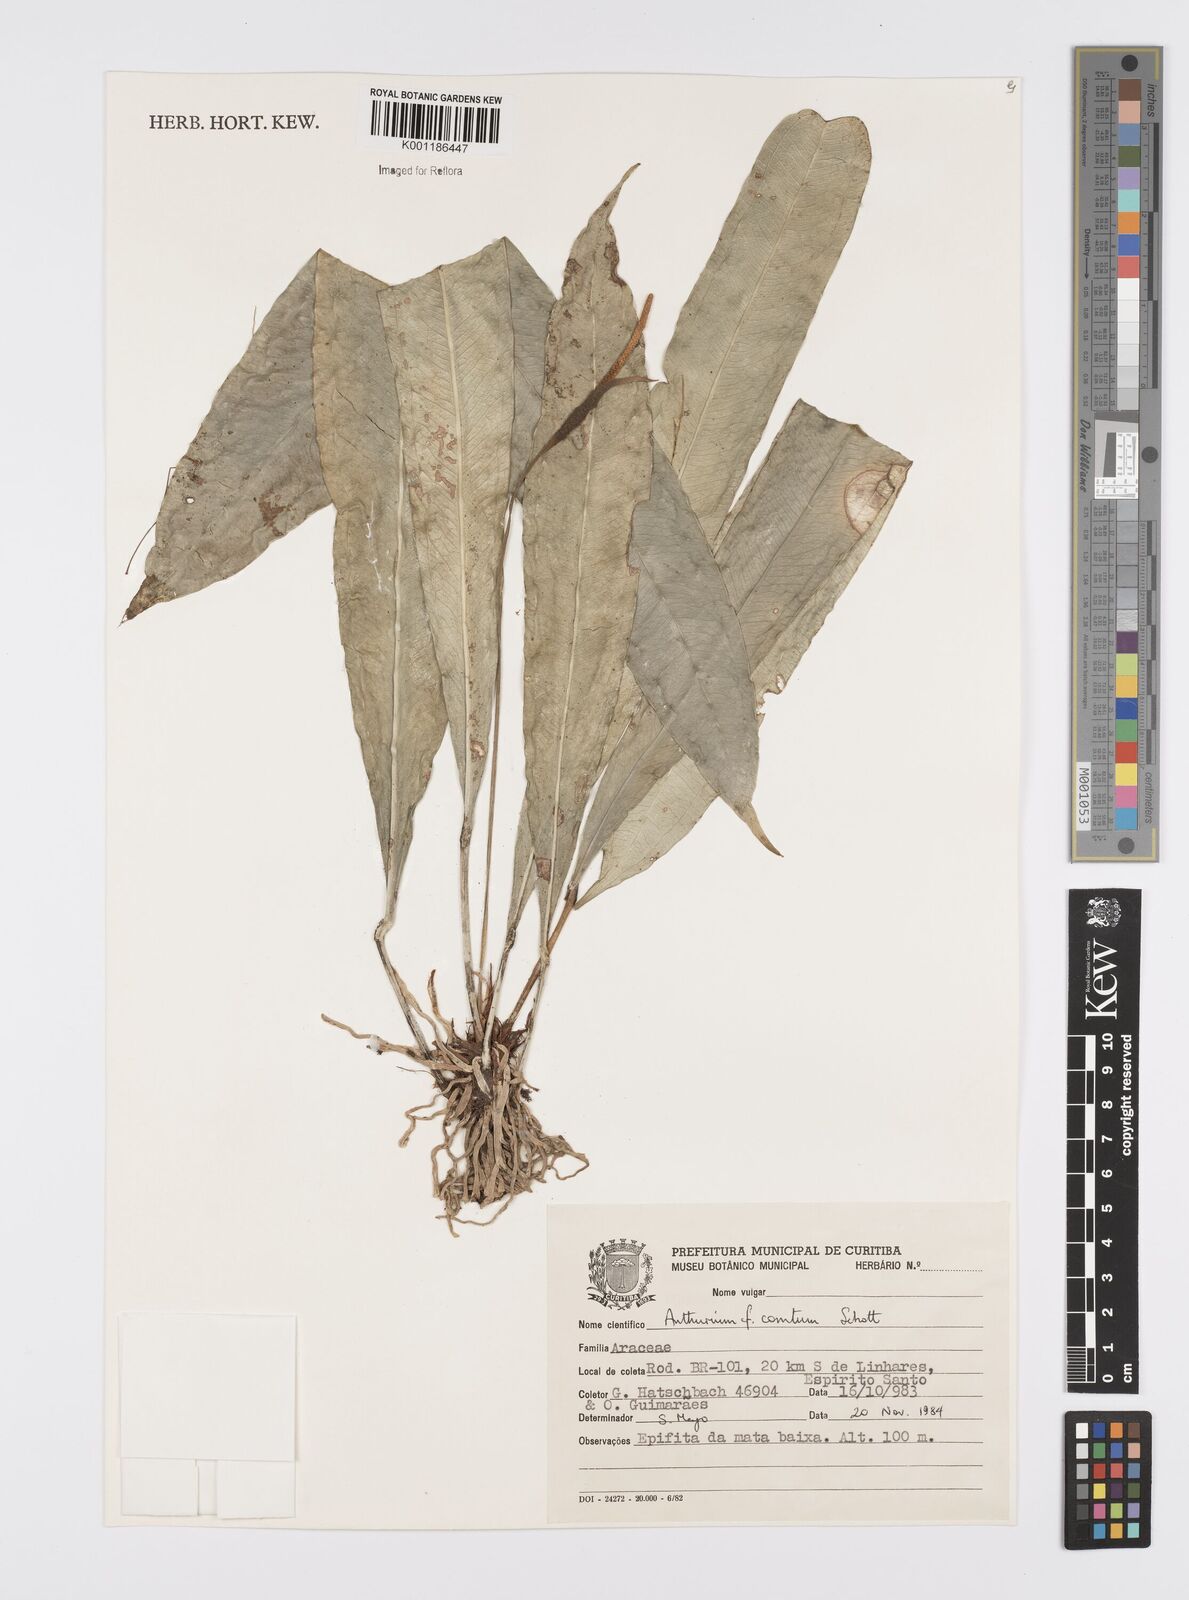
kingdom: Plantae
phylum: Tracheophyta
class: Liliopsida
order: Alismatales
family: Araceae
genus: Anthurium
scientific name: Anthurium comtum
